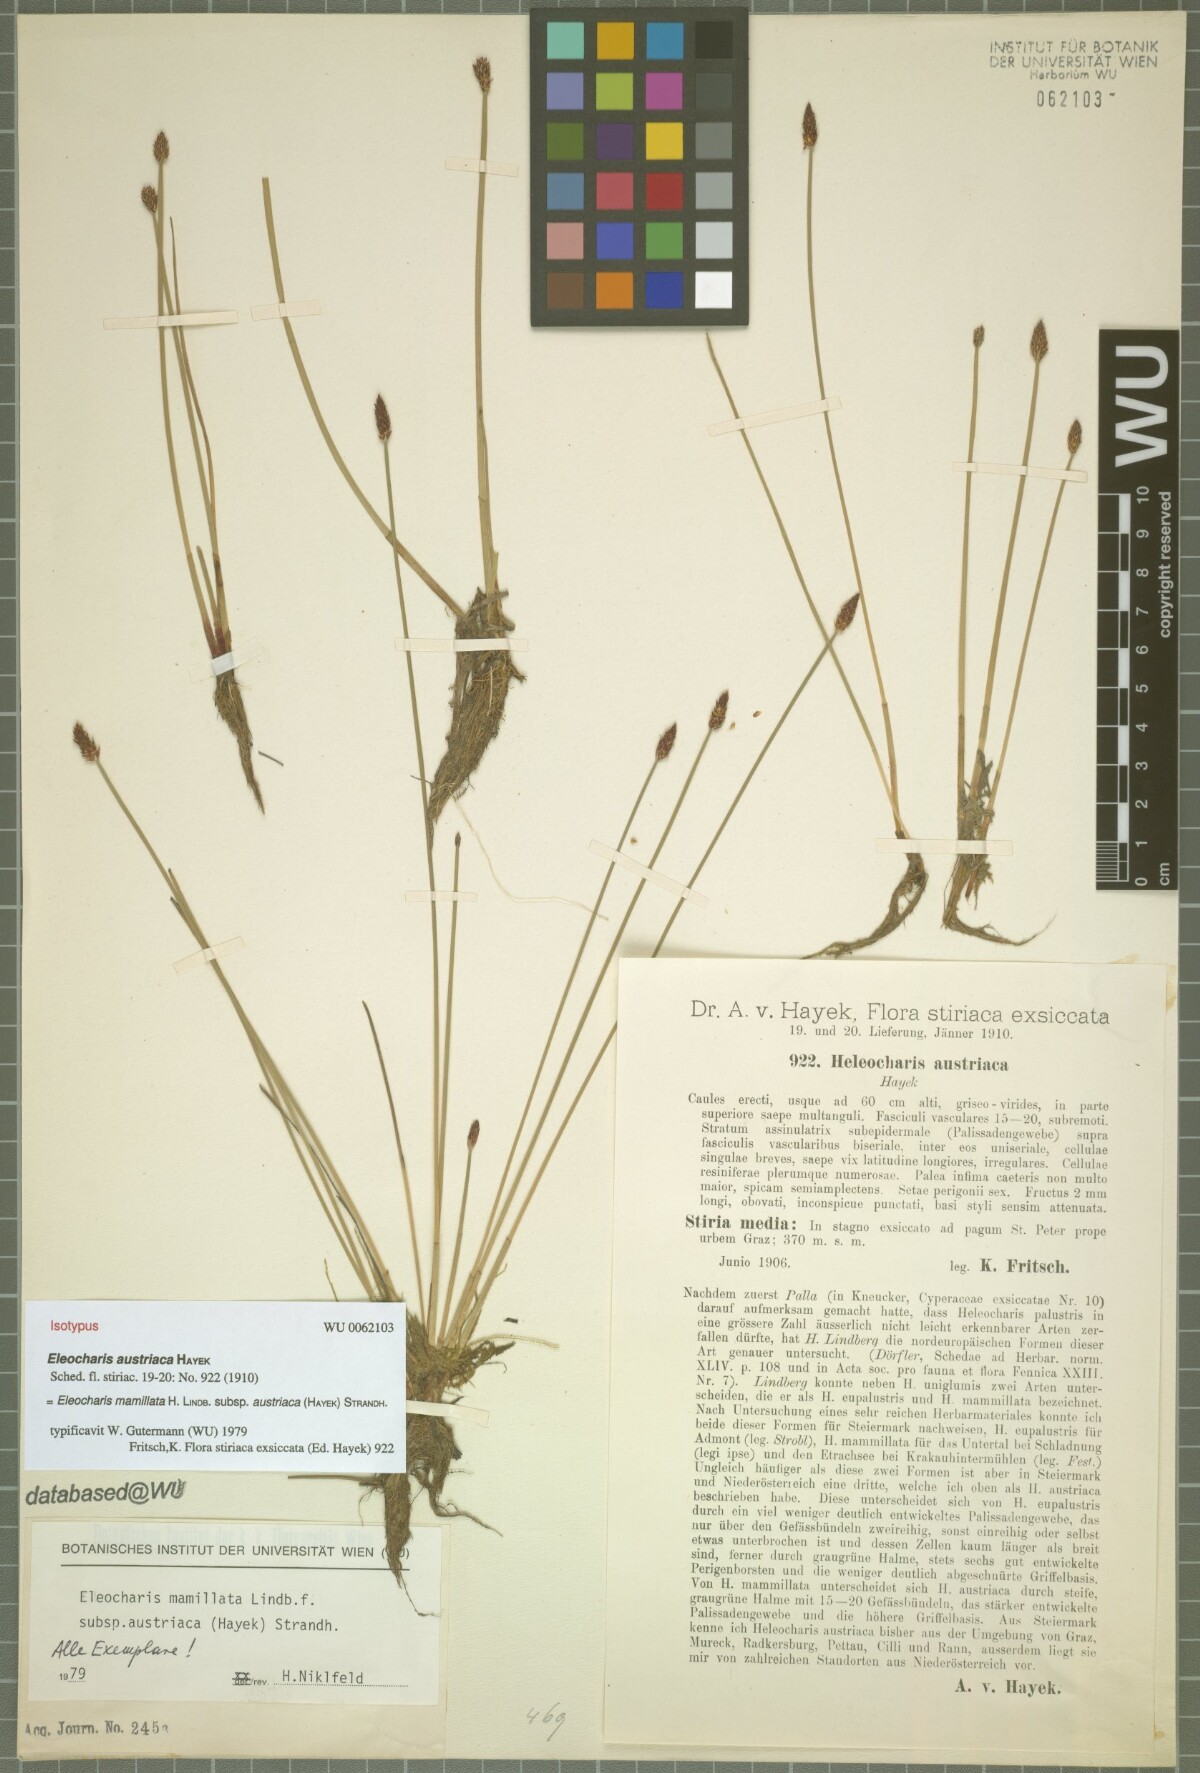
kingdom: Plantae
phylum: Tracheophyta
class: Liliopsida
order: Poales
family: Cyperaceae
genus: Eleocharis
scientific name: Eleocharis mamillata
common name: Northern spike-rush
